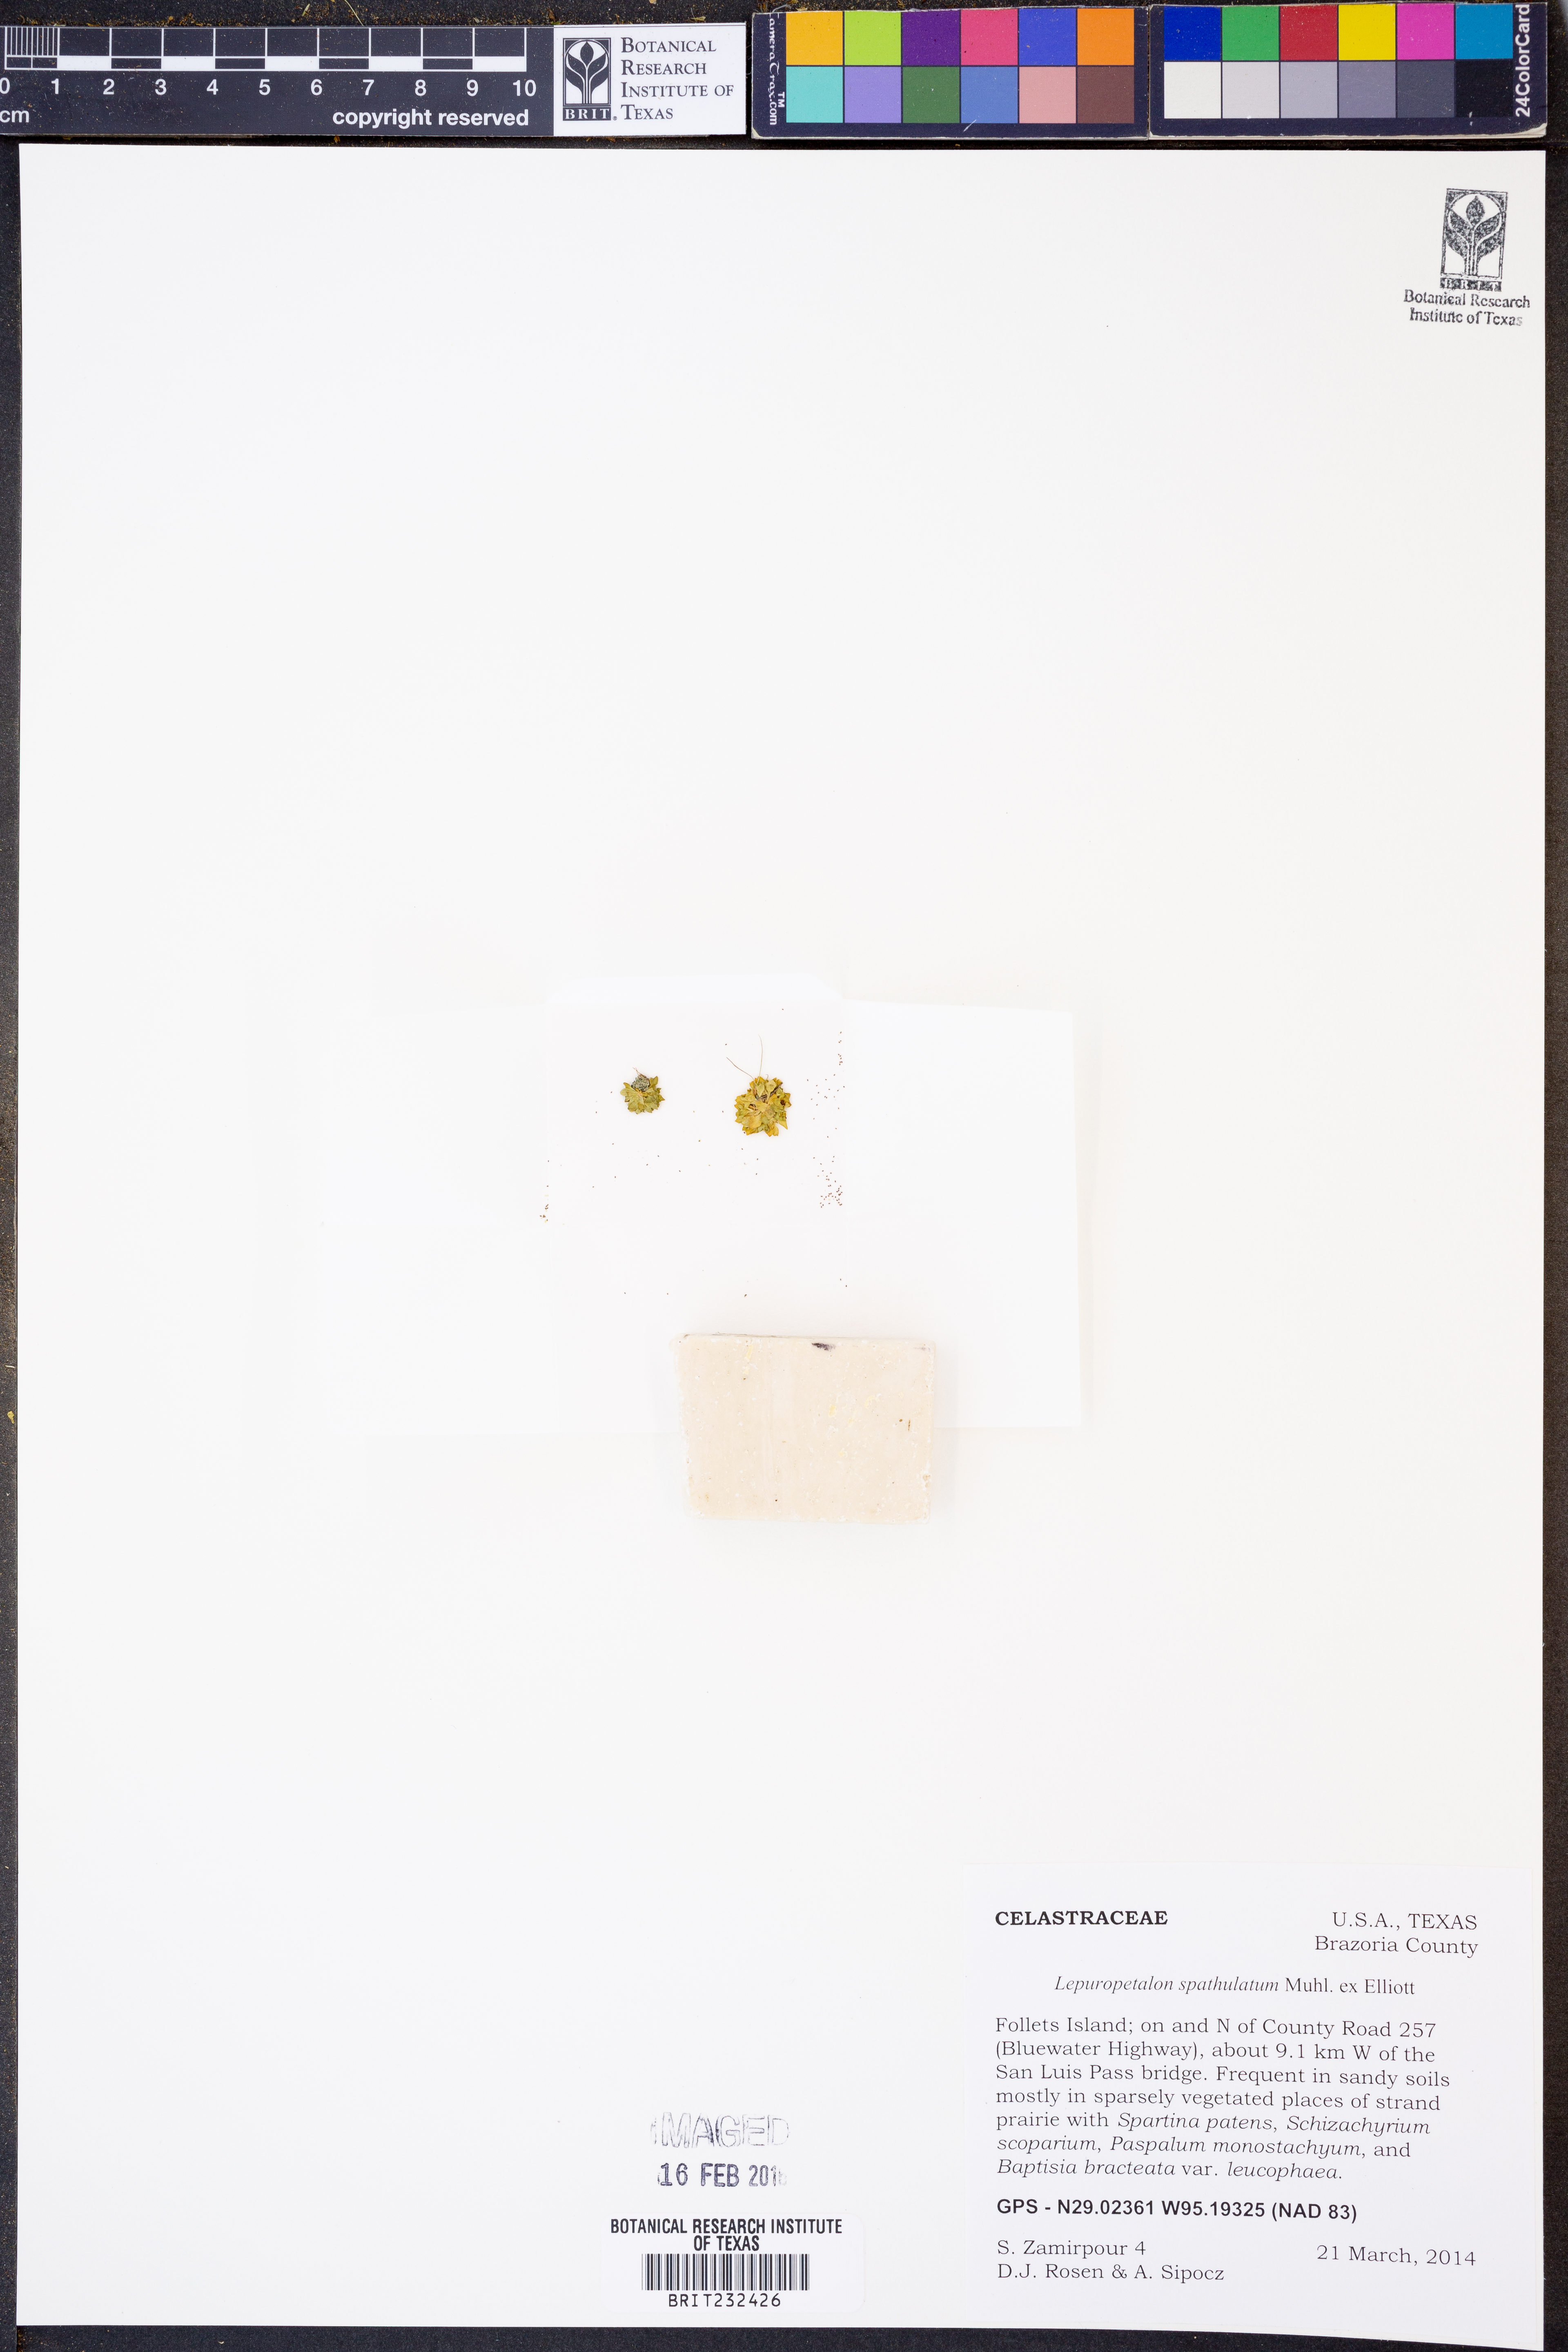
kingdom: Plantae
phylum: Tracheophyta
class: Magnoliopsida
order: Celastrales
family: Parnassiaceae
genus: Lepuropetalon
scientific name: Lepuropetalon spathulatum
